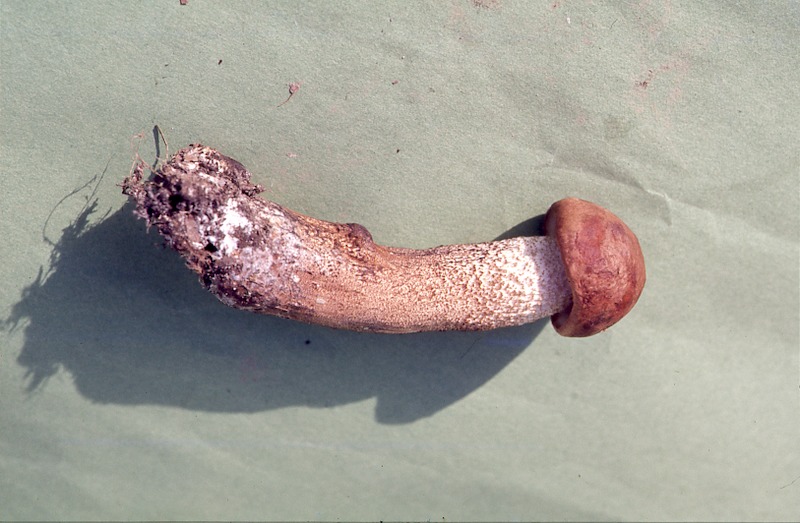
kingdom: Fungi
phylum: Basidiomycota
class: Agaricomycetes
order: Boletales
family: Boletaceae
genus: Leccinum
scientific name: Leccinum aurantiacum
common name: Orange bolete
